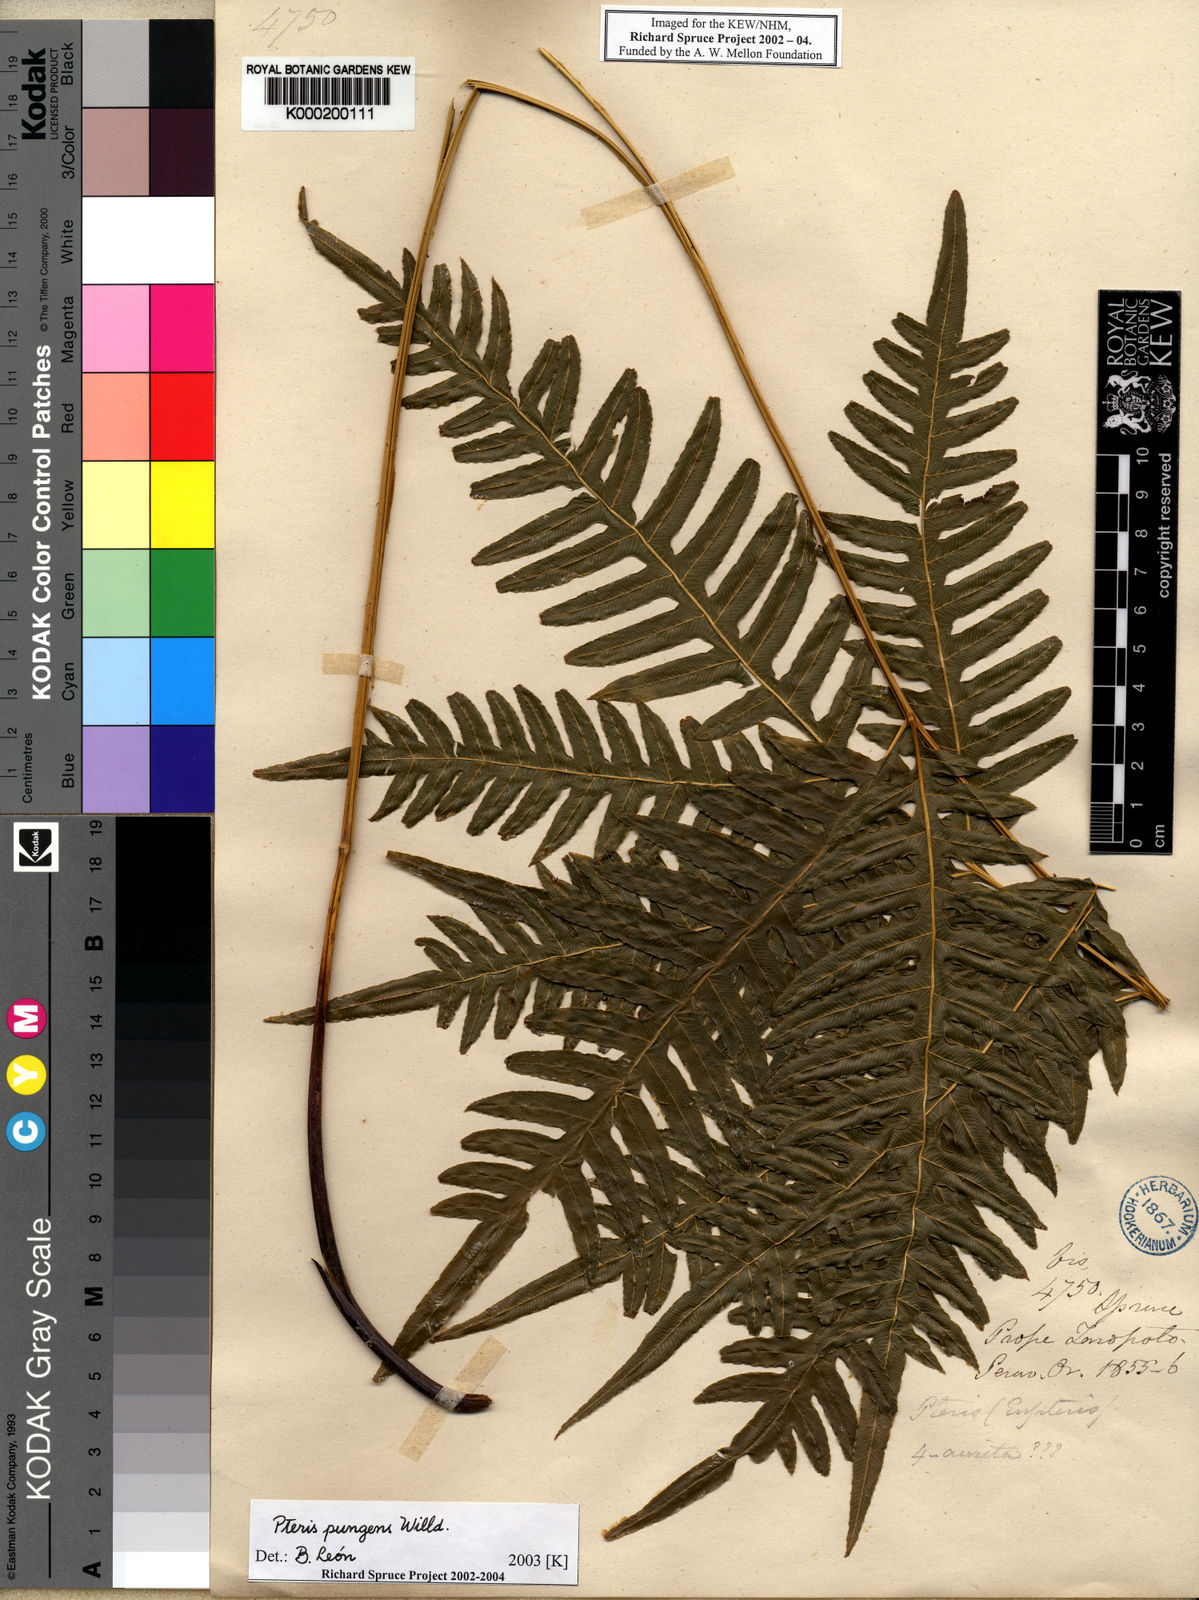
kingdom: Plantae
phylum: Tracheophyta
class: Polypodiopsida
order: Polypodiales
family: Pteridaceae
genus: Pteris
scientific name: Pteris pungens
